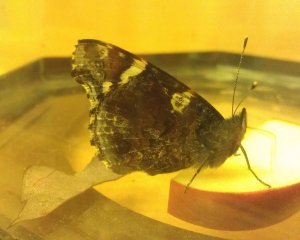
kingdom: Animalia
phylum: Arthropoda
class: Insecta
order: Lepidoptera
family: Nymphalidae
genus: Vanessa
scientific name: Vanessa atalanta
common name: Red Admiral
